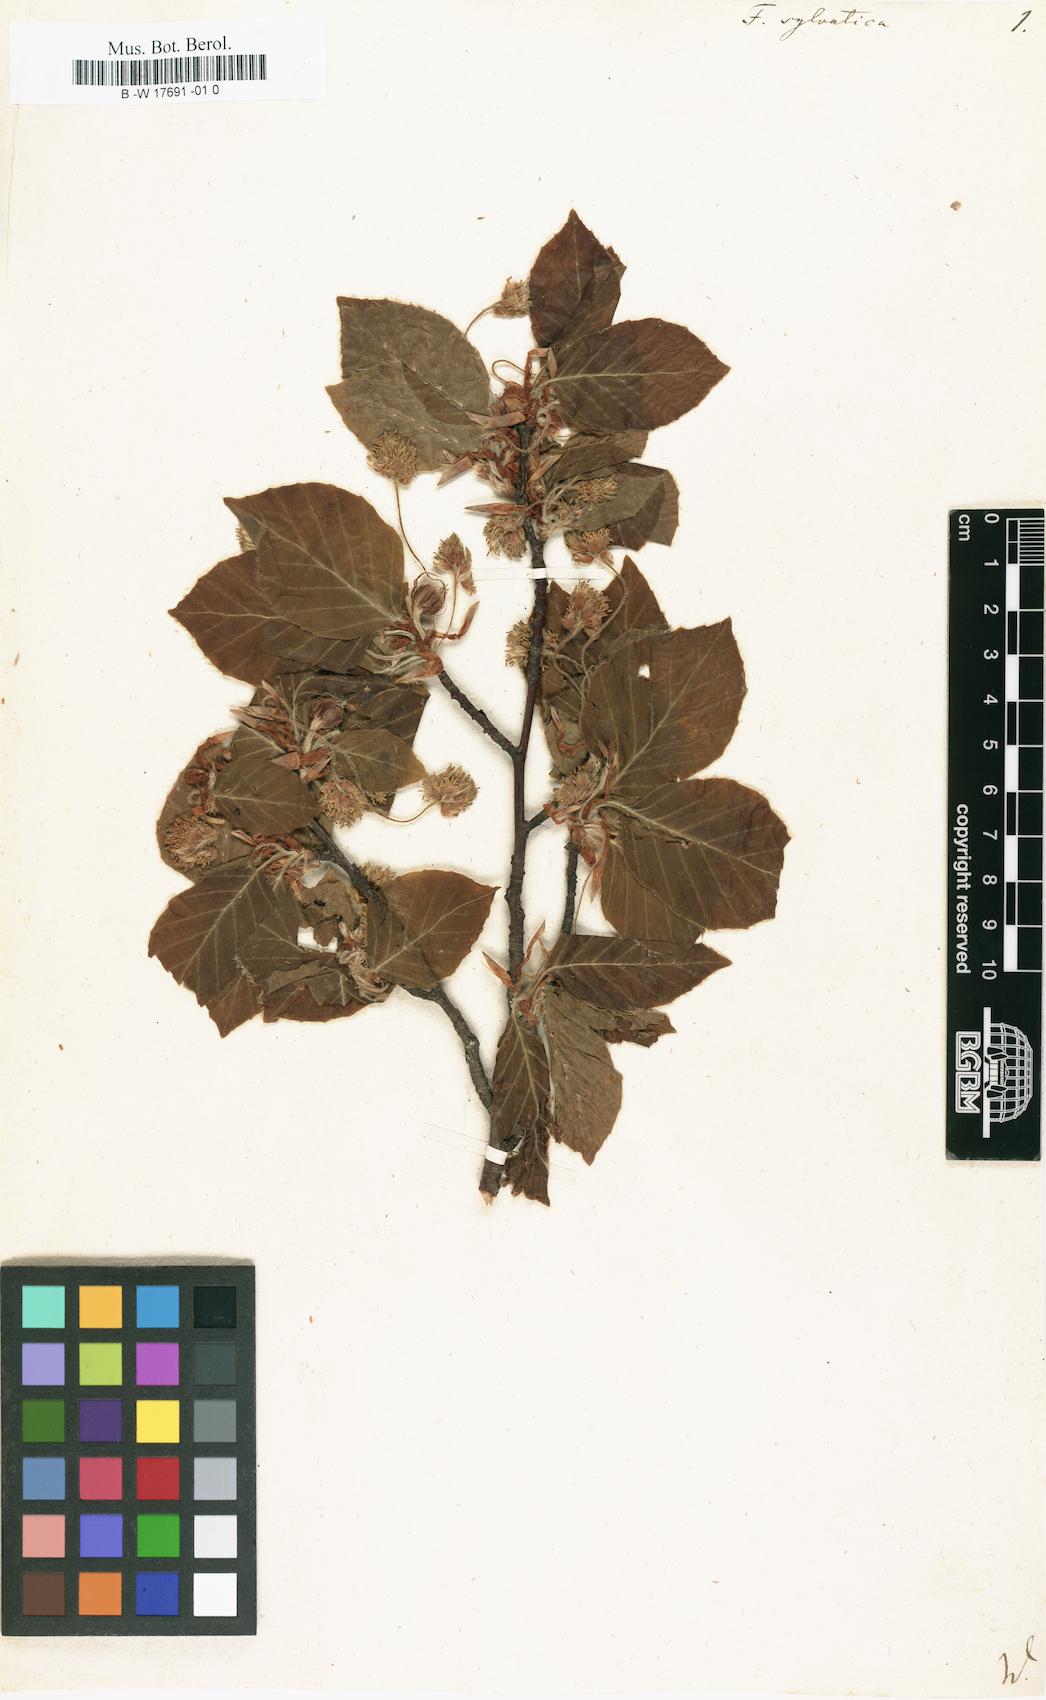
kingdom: Plantae
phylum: Tracheophyta
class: Magnoliopsida
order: Fagales
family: Fagaceae
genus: Fagus
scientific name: Fagus sylvatica
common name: Beech
